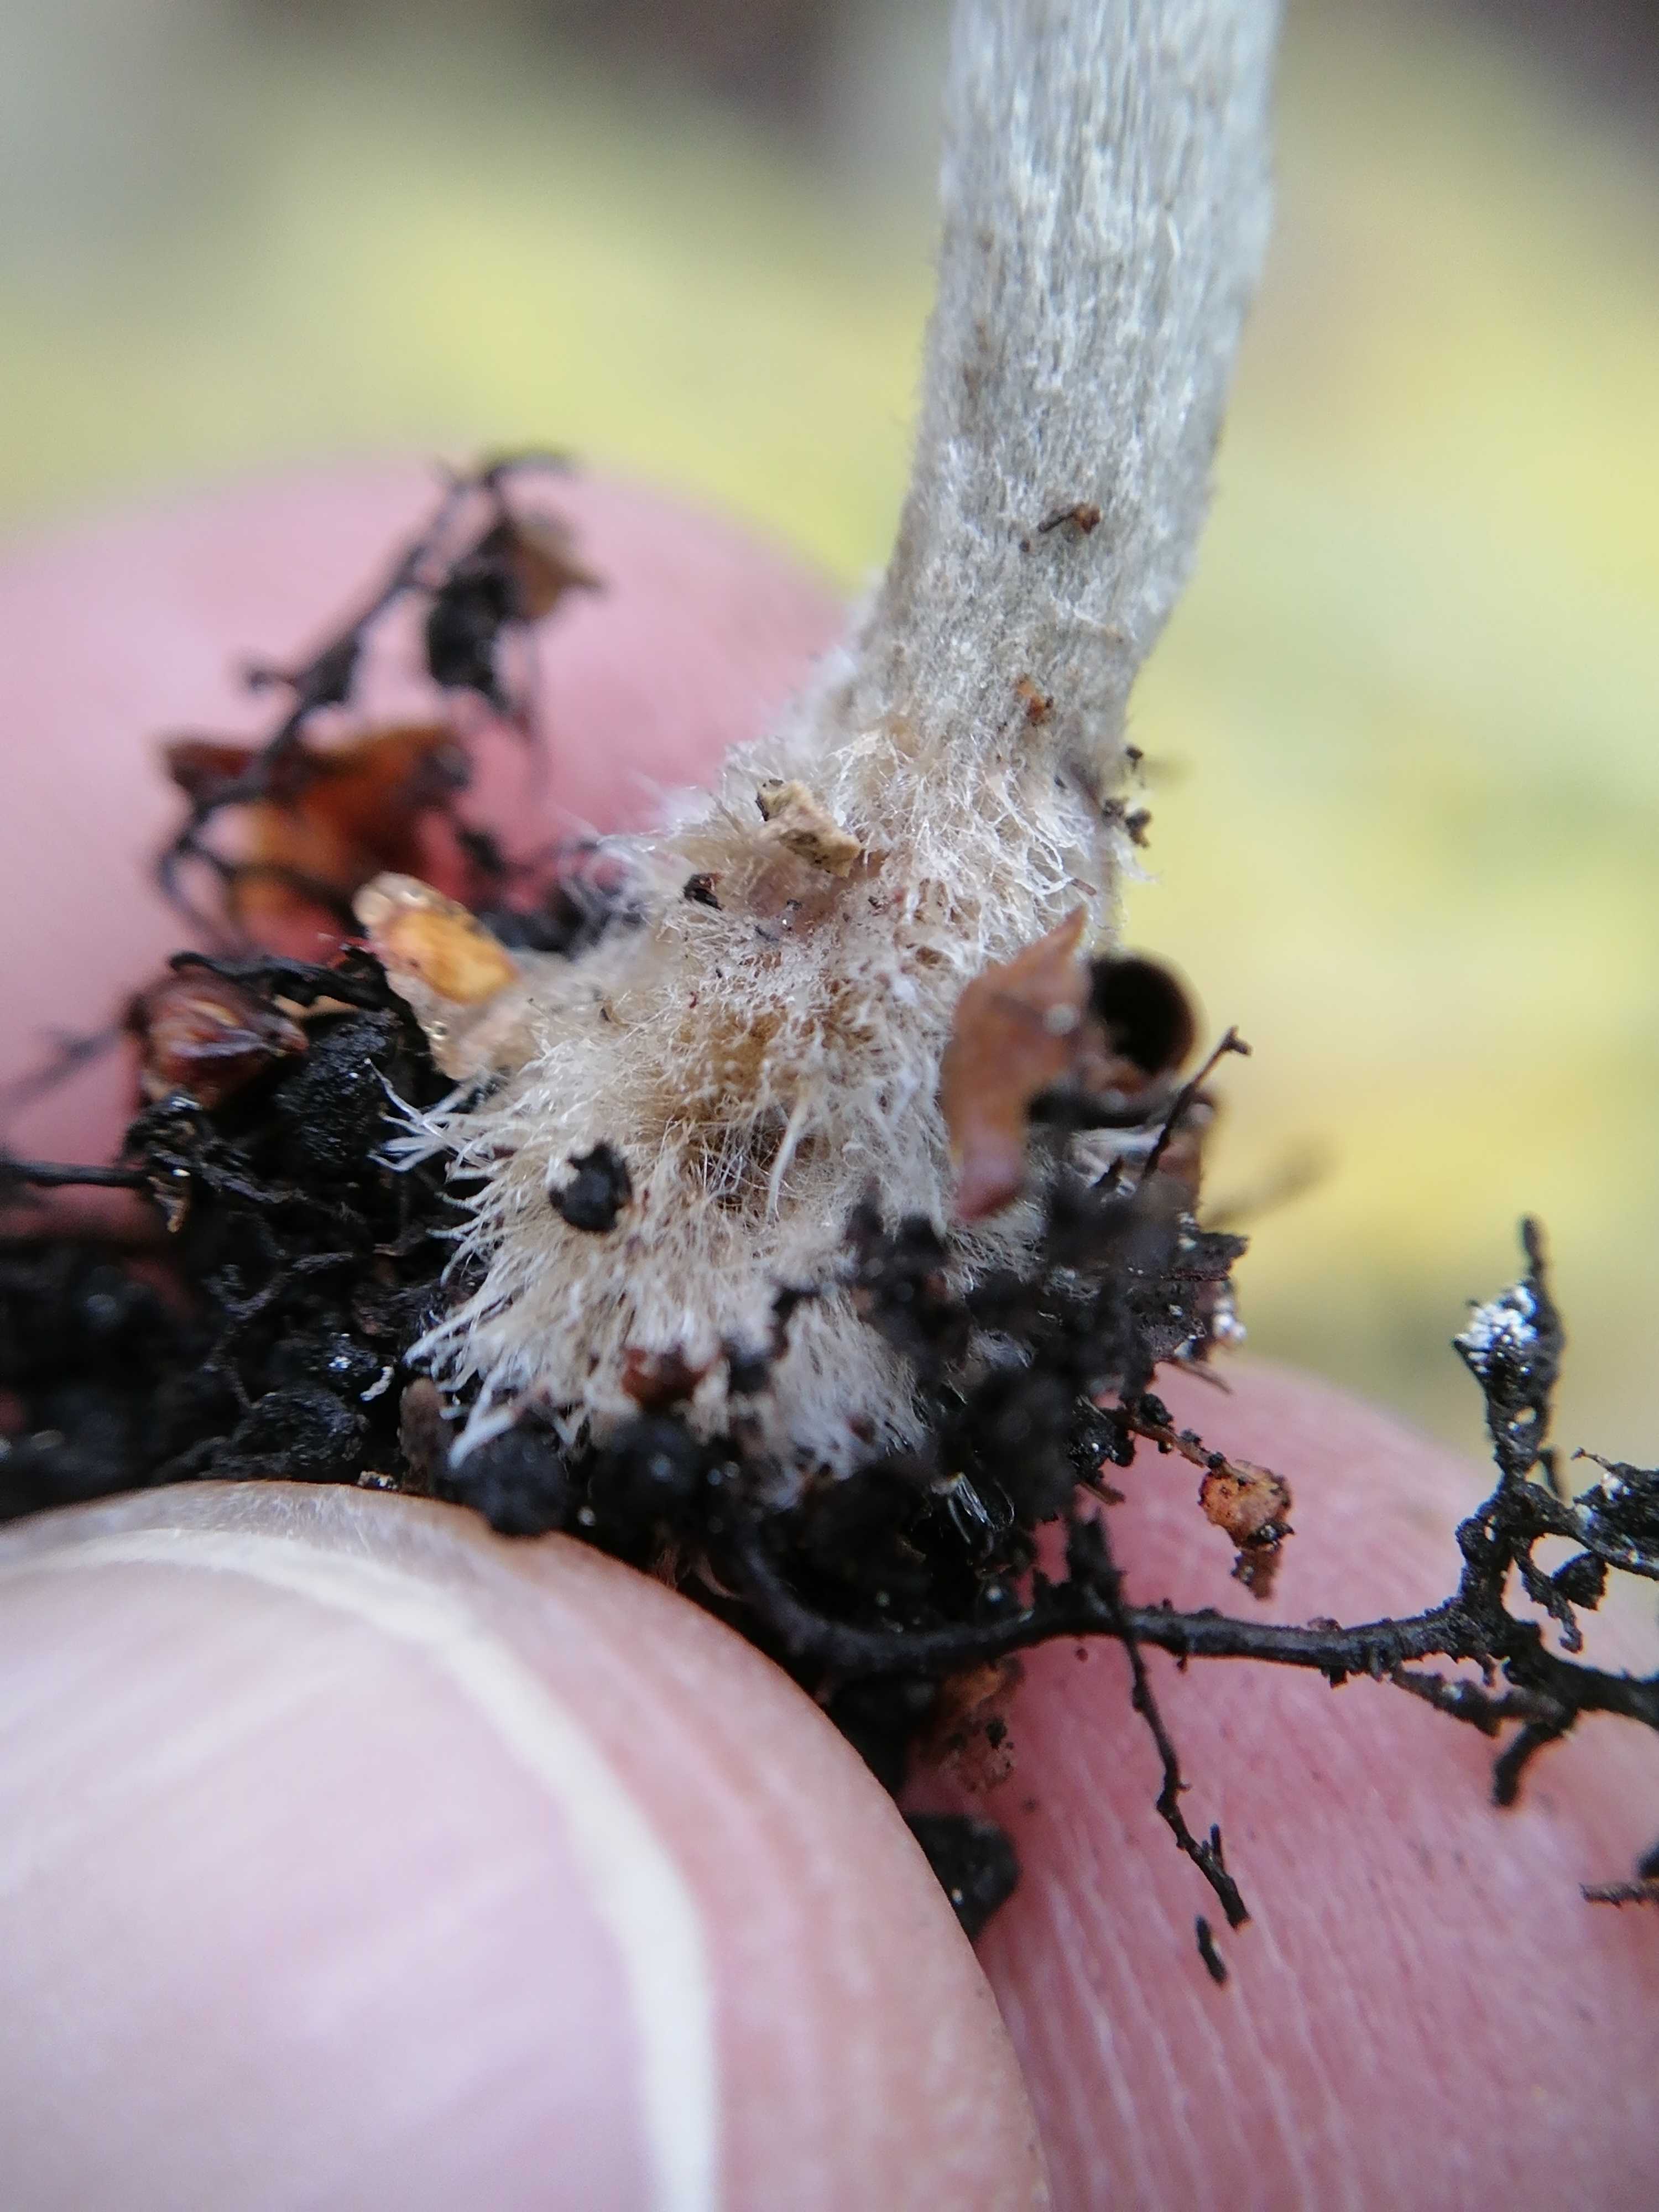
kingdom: Fungi
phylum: Basidiomycota
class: Agaricomycetes
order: Agaricales
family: Entolomataceae
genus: Entoloma
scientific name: Entoloma araneosum
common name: spindelvævs-rødblad
